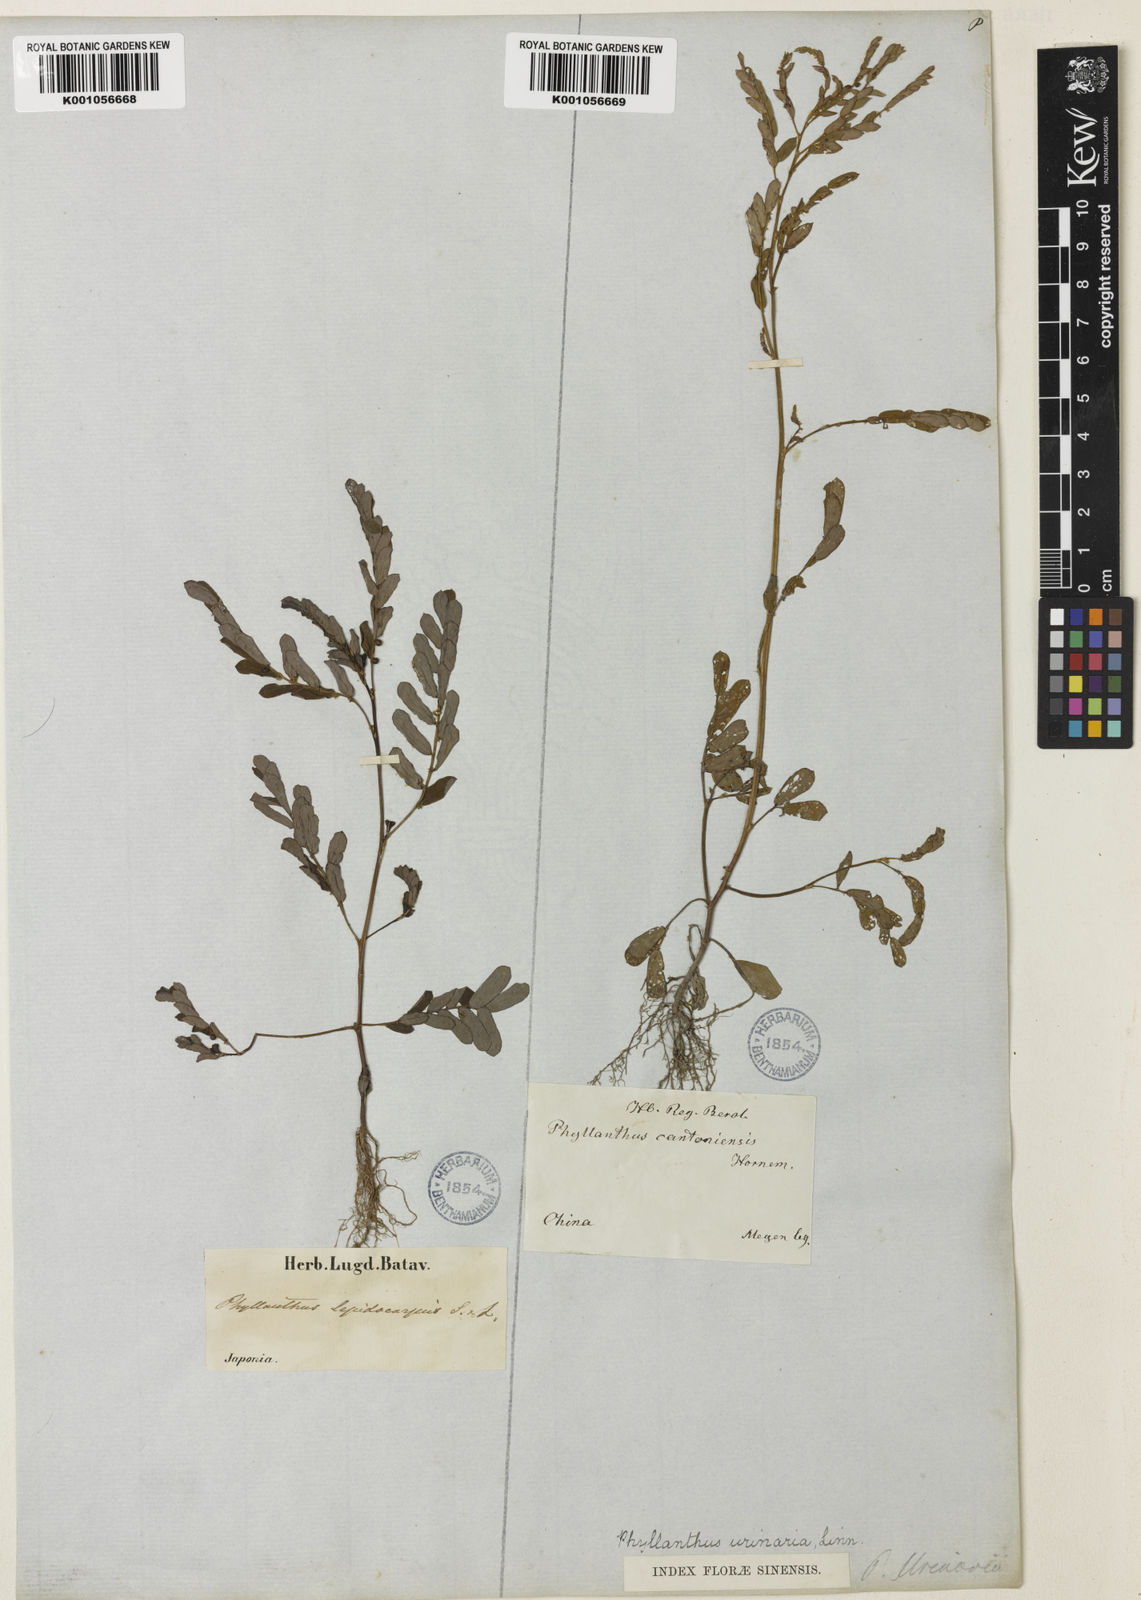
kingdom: Plantae
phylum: Tracheophyta
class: Magnoliopsida
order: Malpighiales
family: Phyllanthaceae
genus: Phyllanthus
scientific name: Phyllanthus urinaria
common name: Chamber bitter
